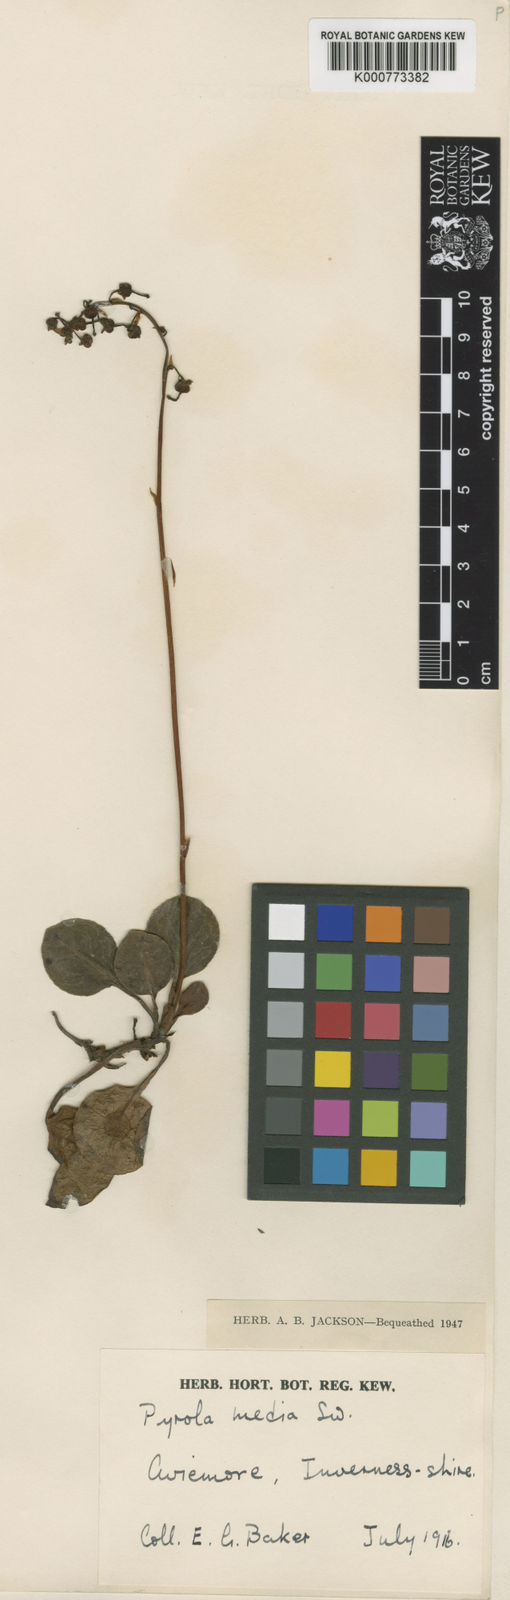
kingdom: Plantae
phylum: Tracheophyta
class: Magnoliopsida
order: Ericales
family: Ericaceae
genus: Pyrola
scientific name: Pyrola media
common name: Intermediate wintergreen
